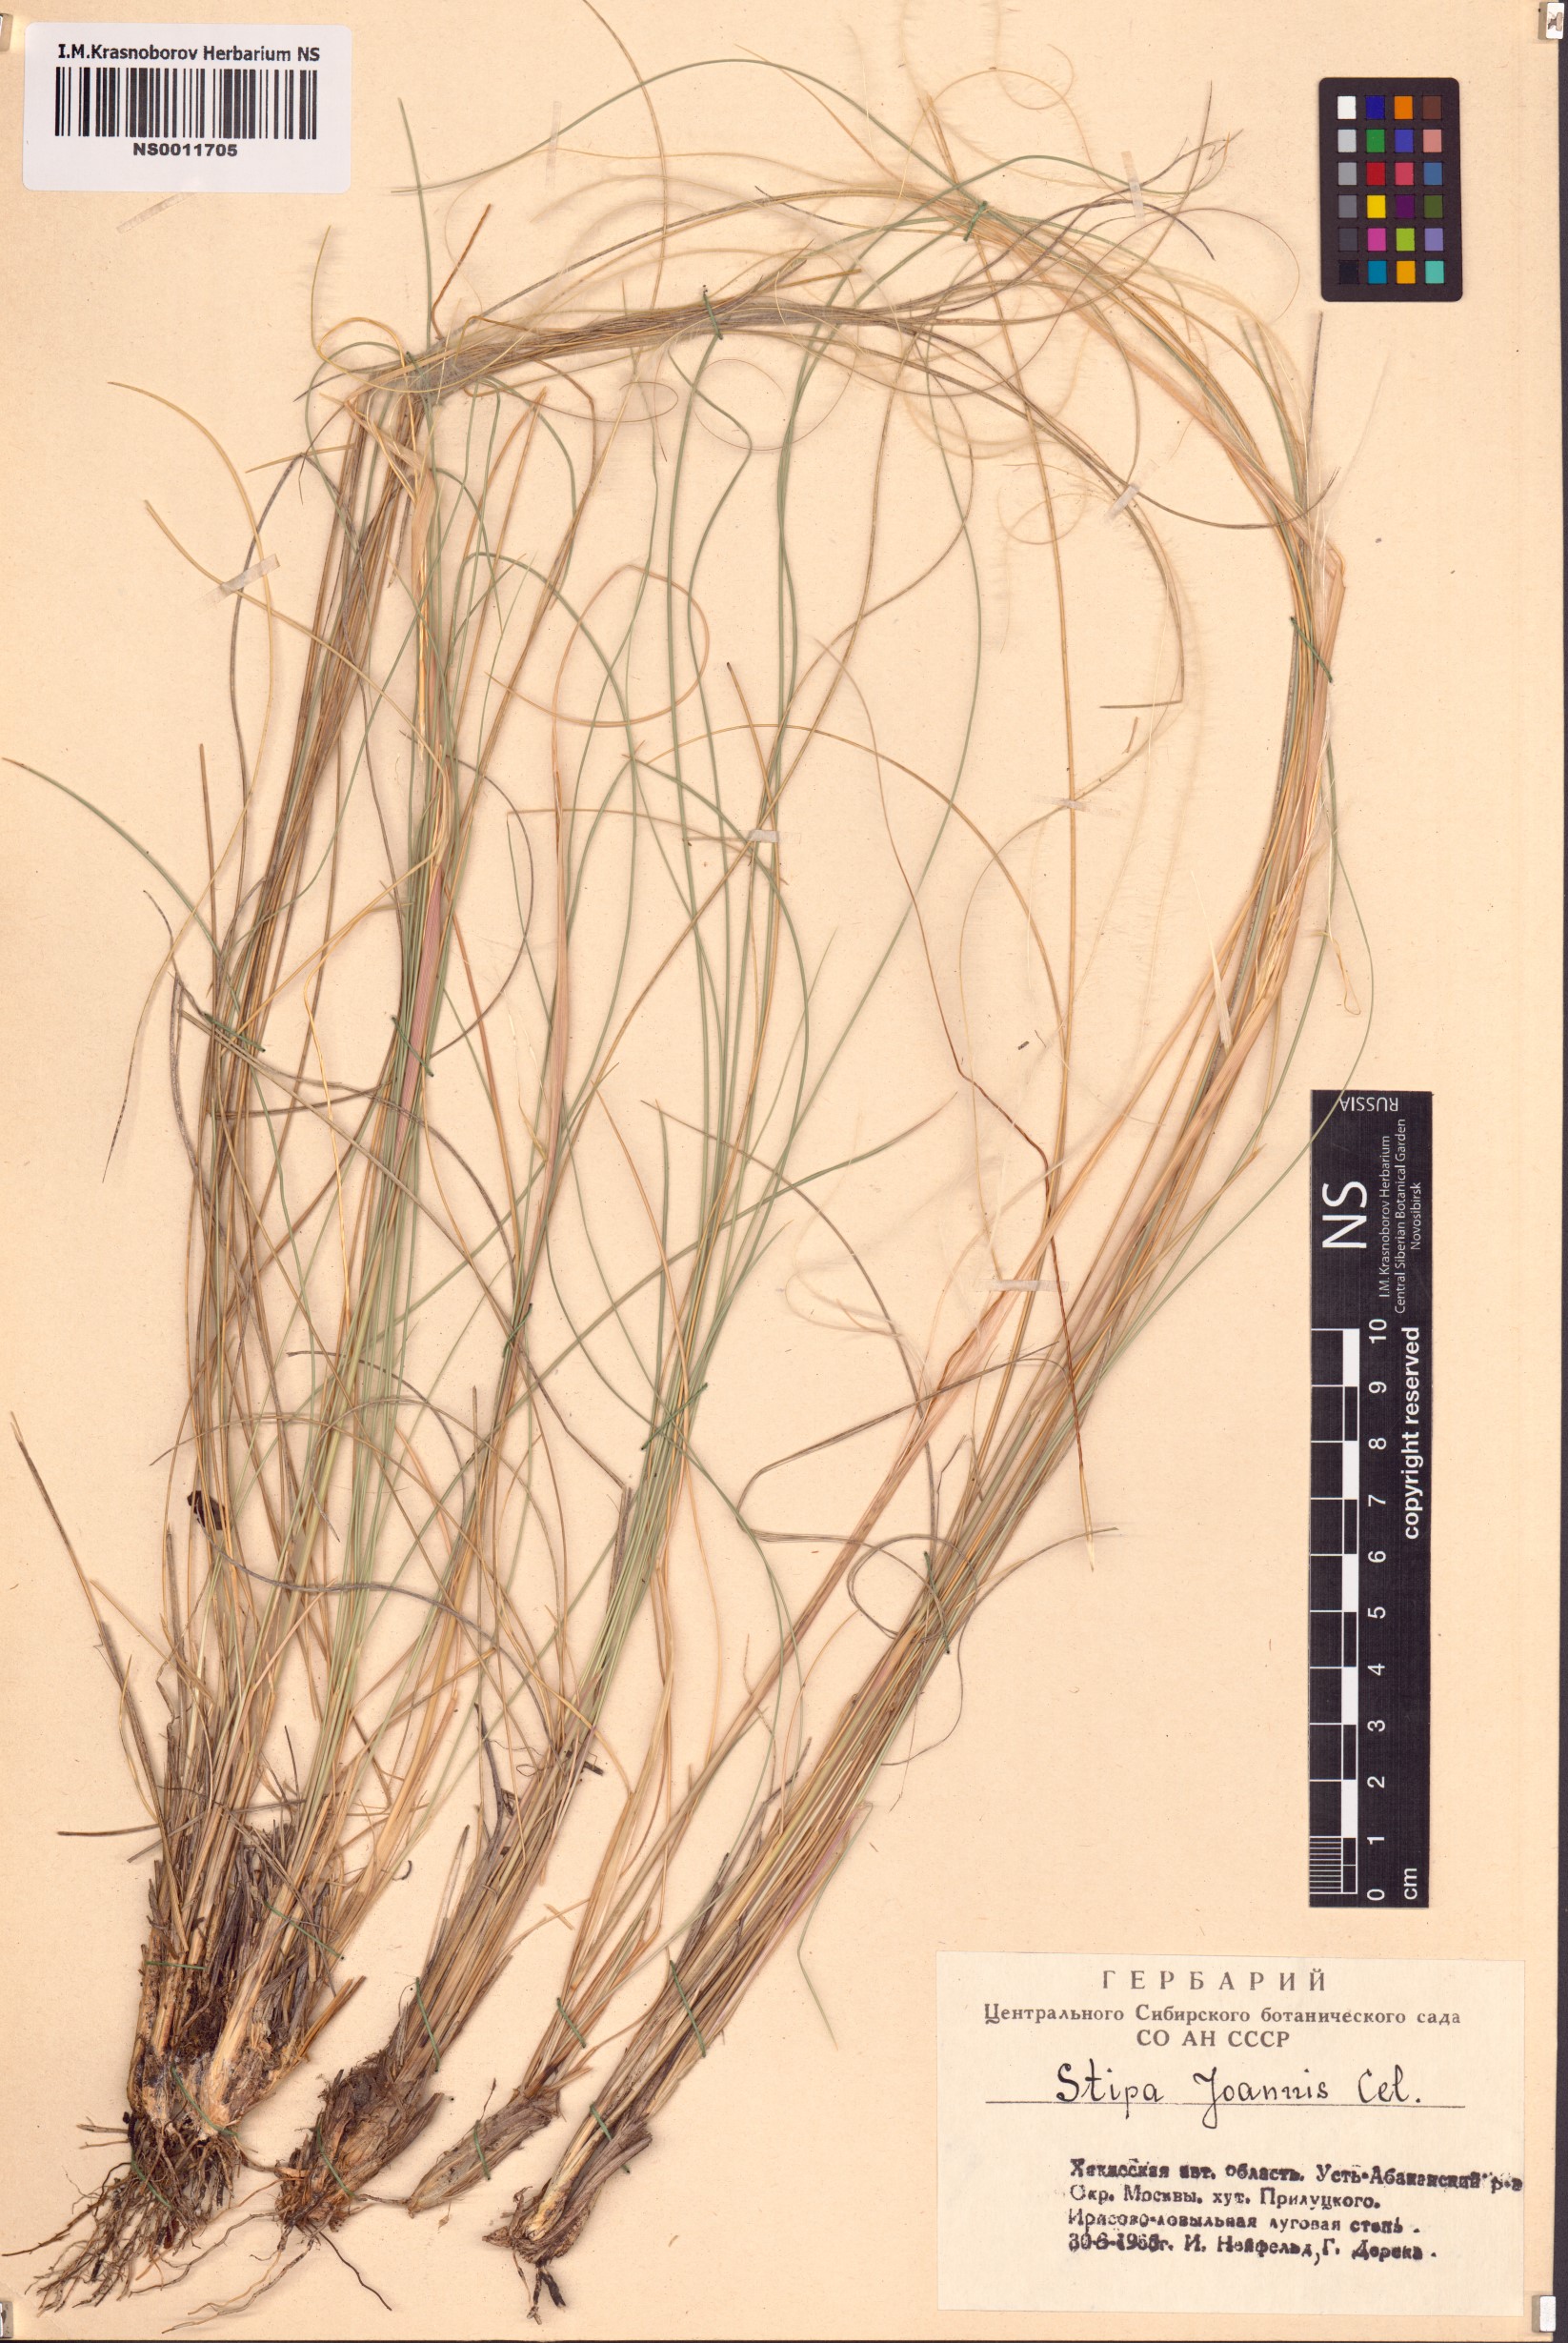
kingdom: Plantae
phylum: Tracheophyta
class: Liliopsida
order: Poales
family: Poaceae
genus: Stipa
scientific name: Stipa pennata
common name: European feather grass
